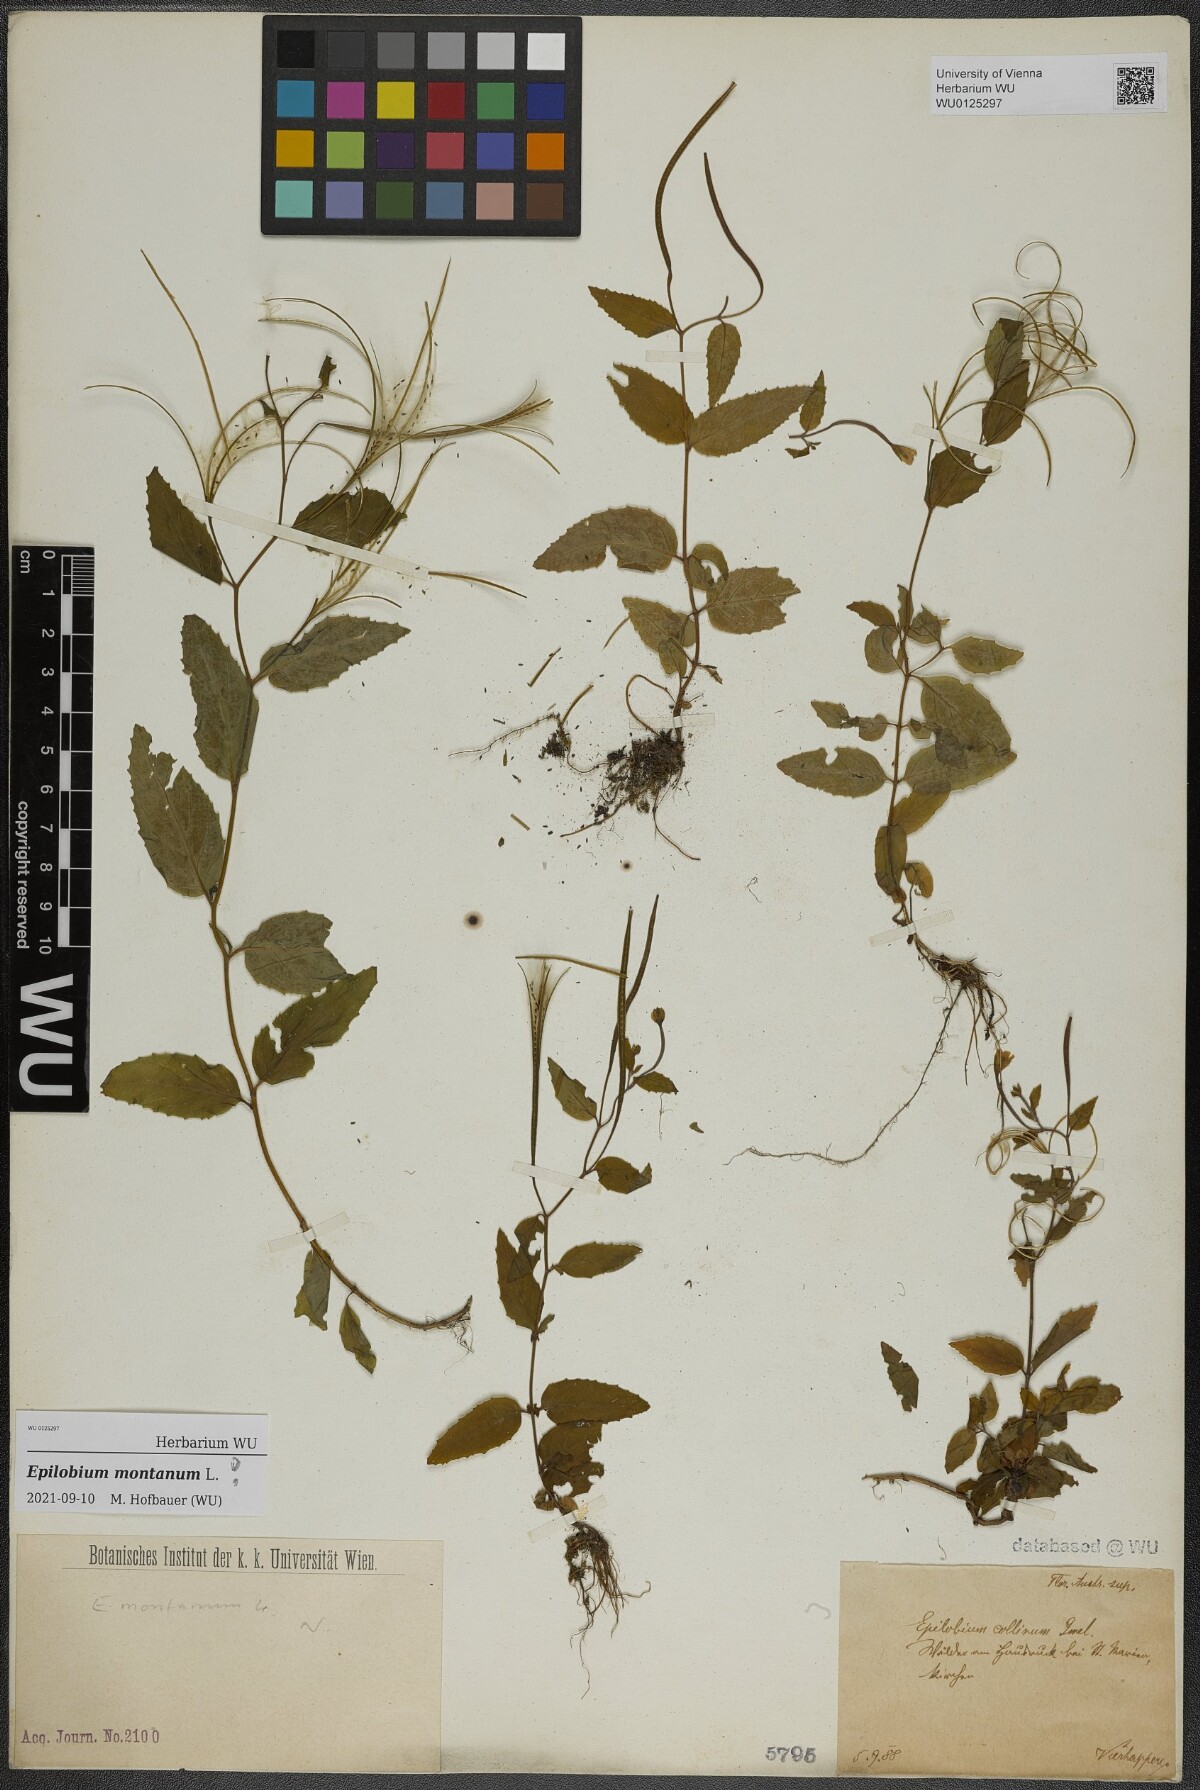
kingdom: Plantae
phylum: Tracheophyta
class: Magnoliopsida
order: Myrtales
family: Onagraceae
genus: Epilobium
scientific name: Epilobium montanum
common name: Broad-leaved willowherb
